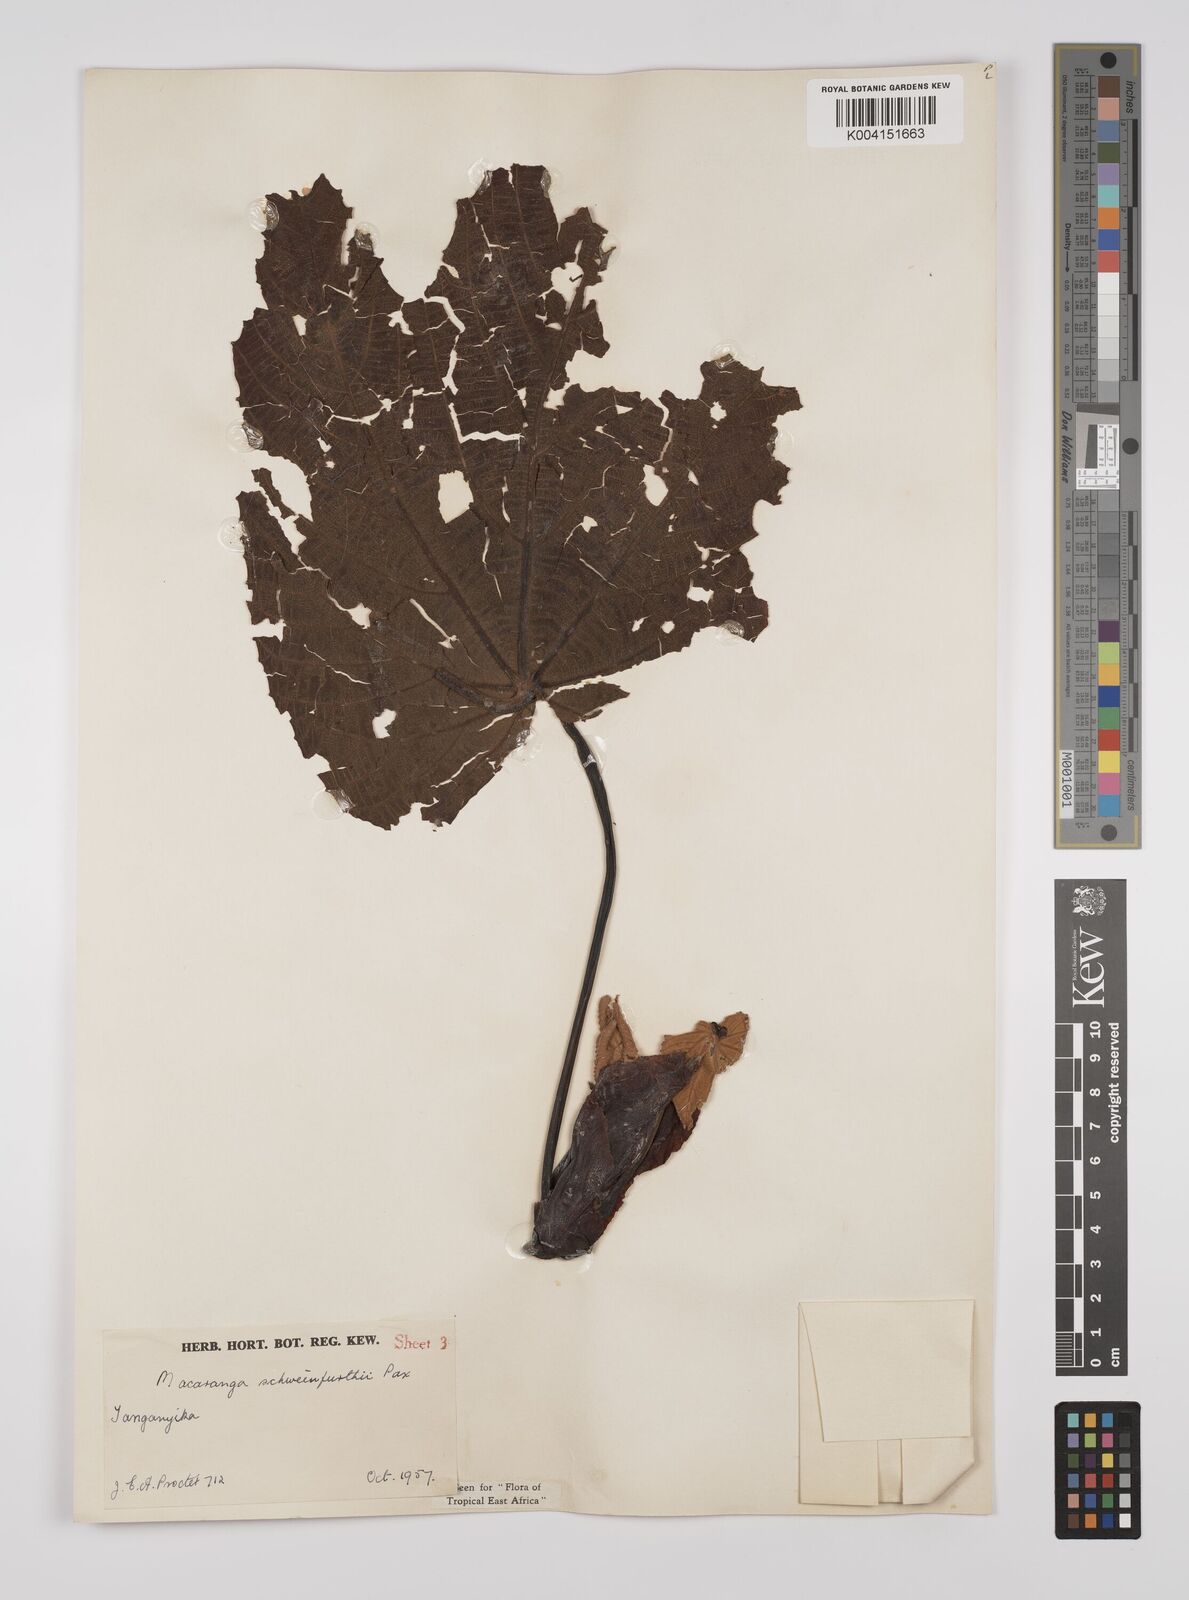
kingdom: Plantae
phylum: Tracheophyta
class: Magnoliopsida
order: Malpighiales
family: Euphorbiaceae
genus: Macaranga
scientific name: Macaranga schweinfurthii
